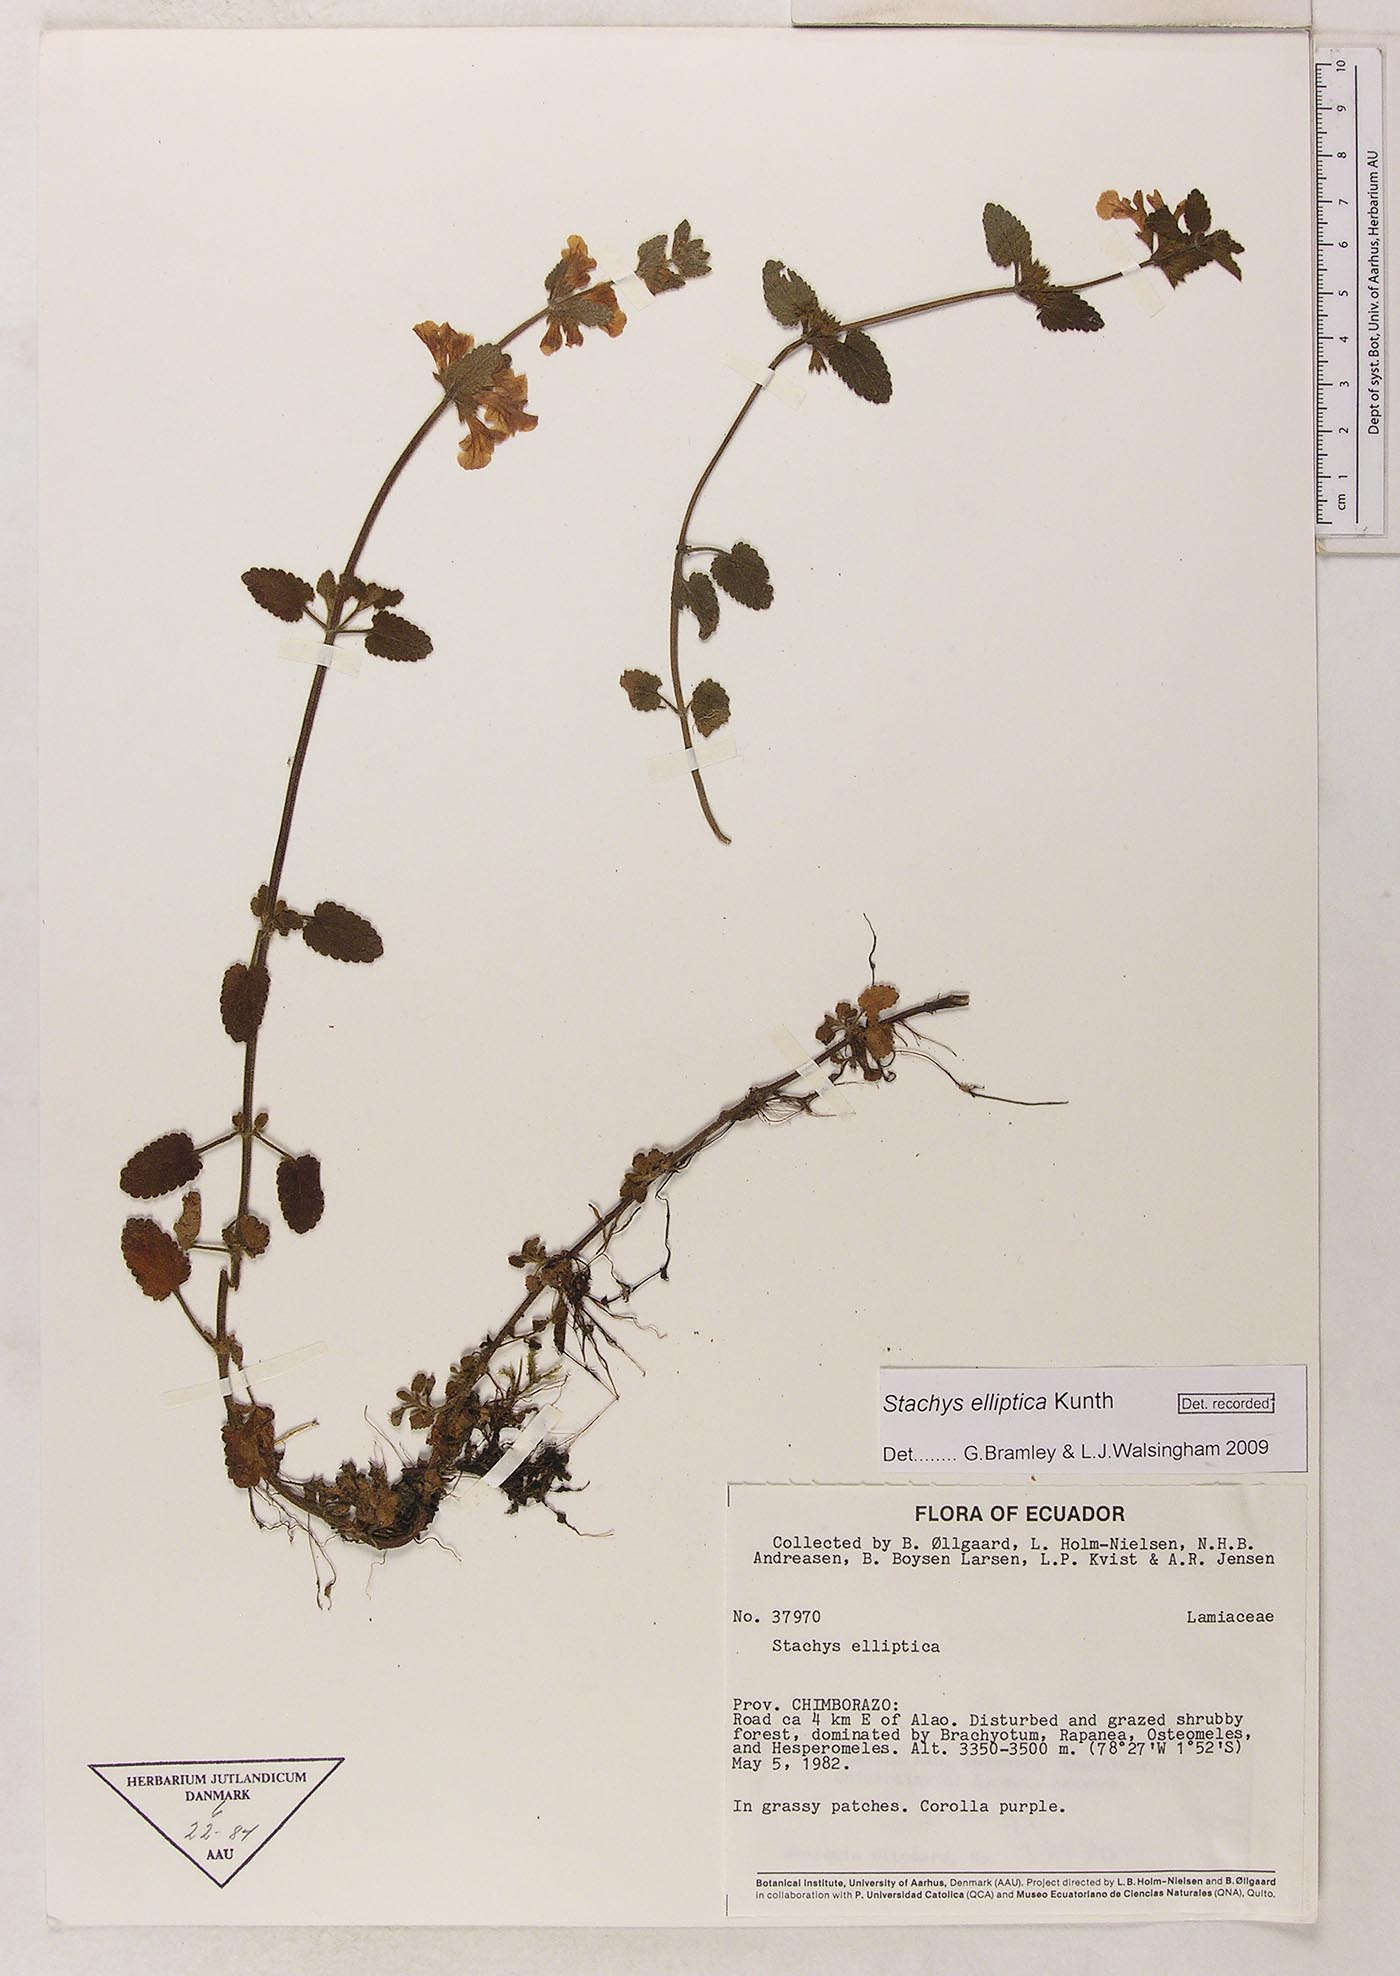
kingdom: Plantae
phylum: Tracheophyta
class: Magnoliopsida
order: Lamiales
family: Lamiaceae
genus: Stachys
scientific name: Stachys elliptica
